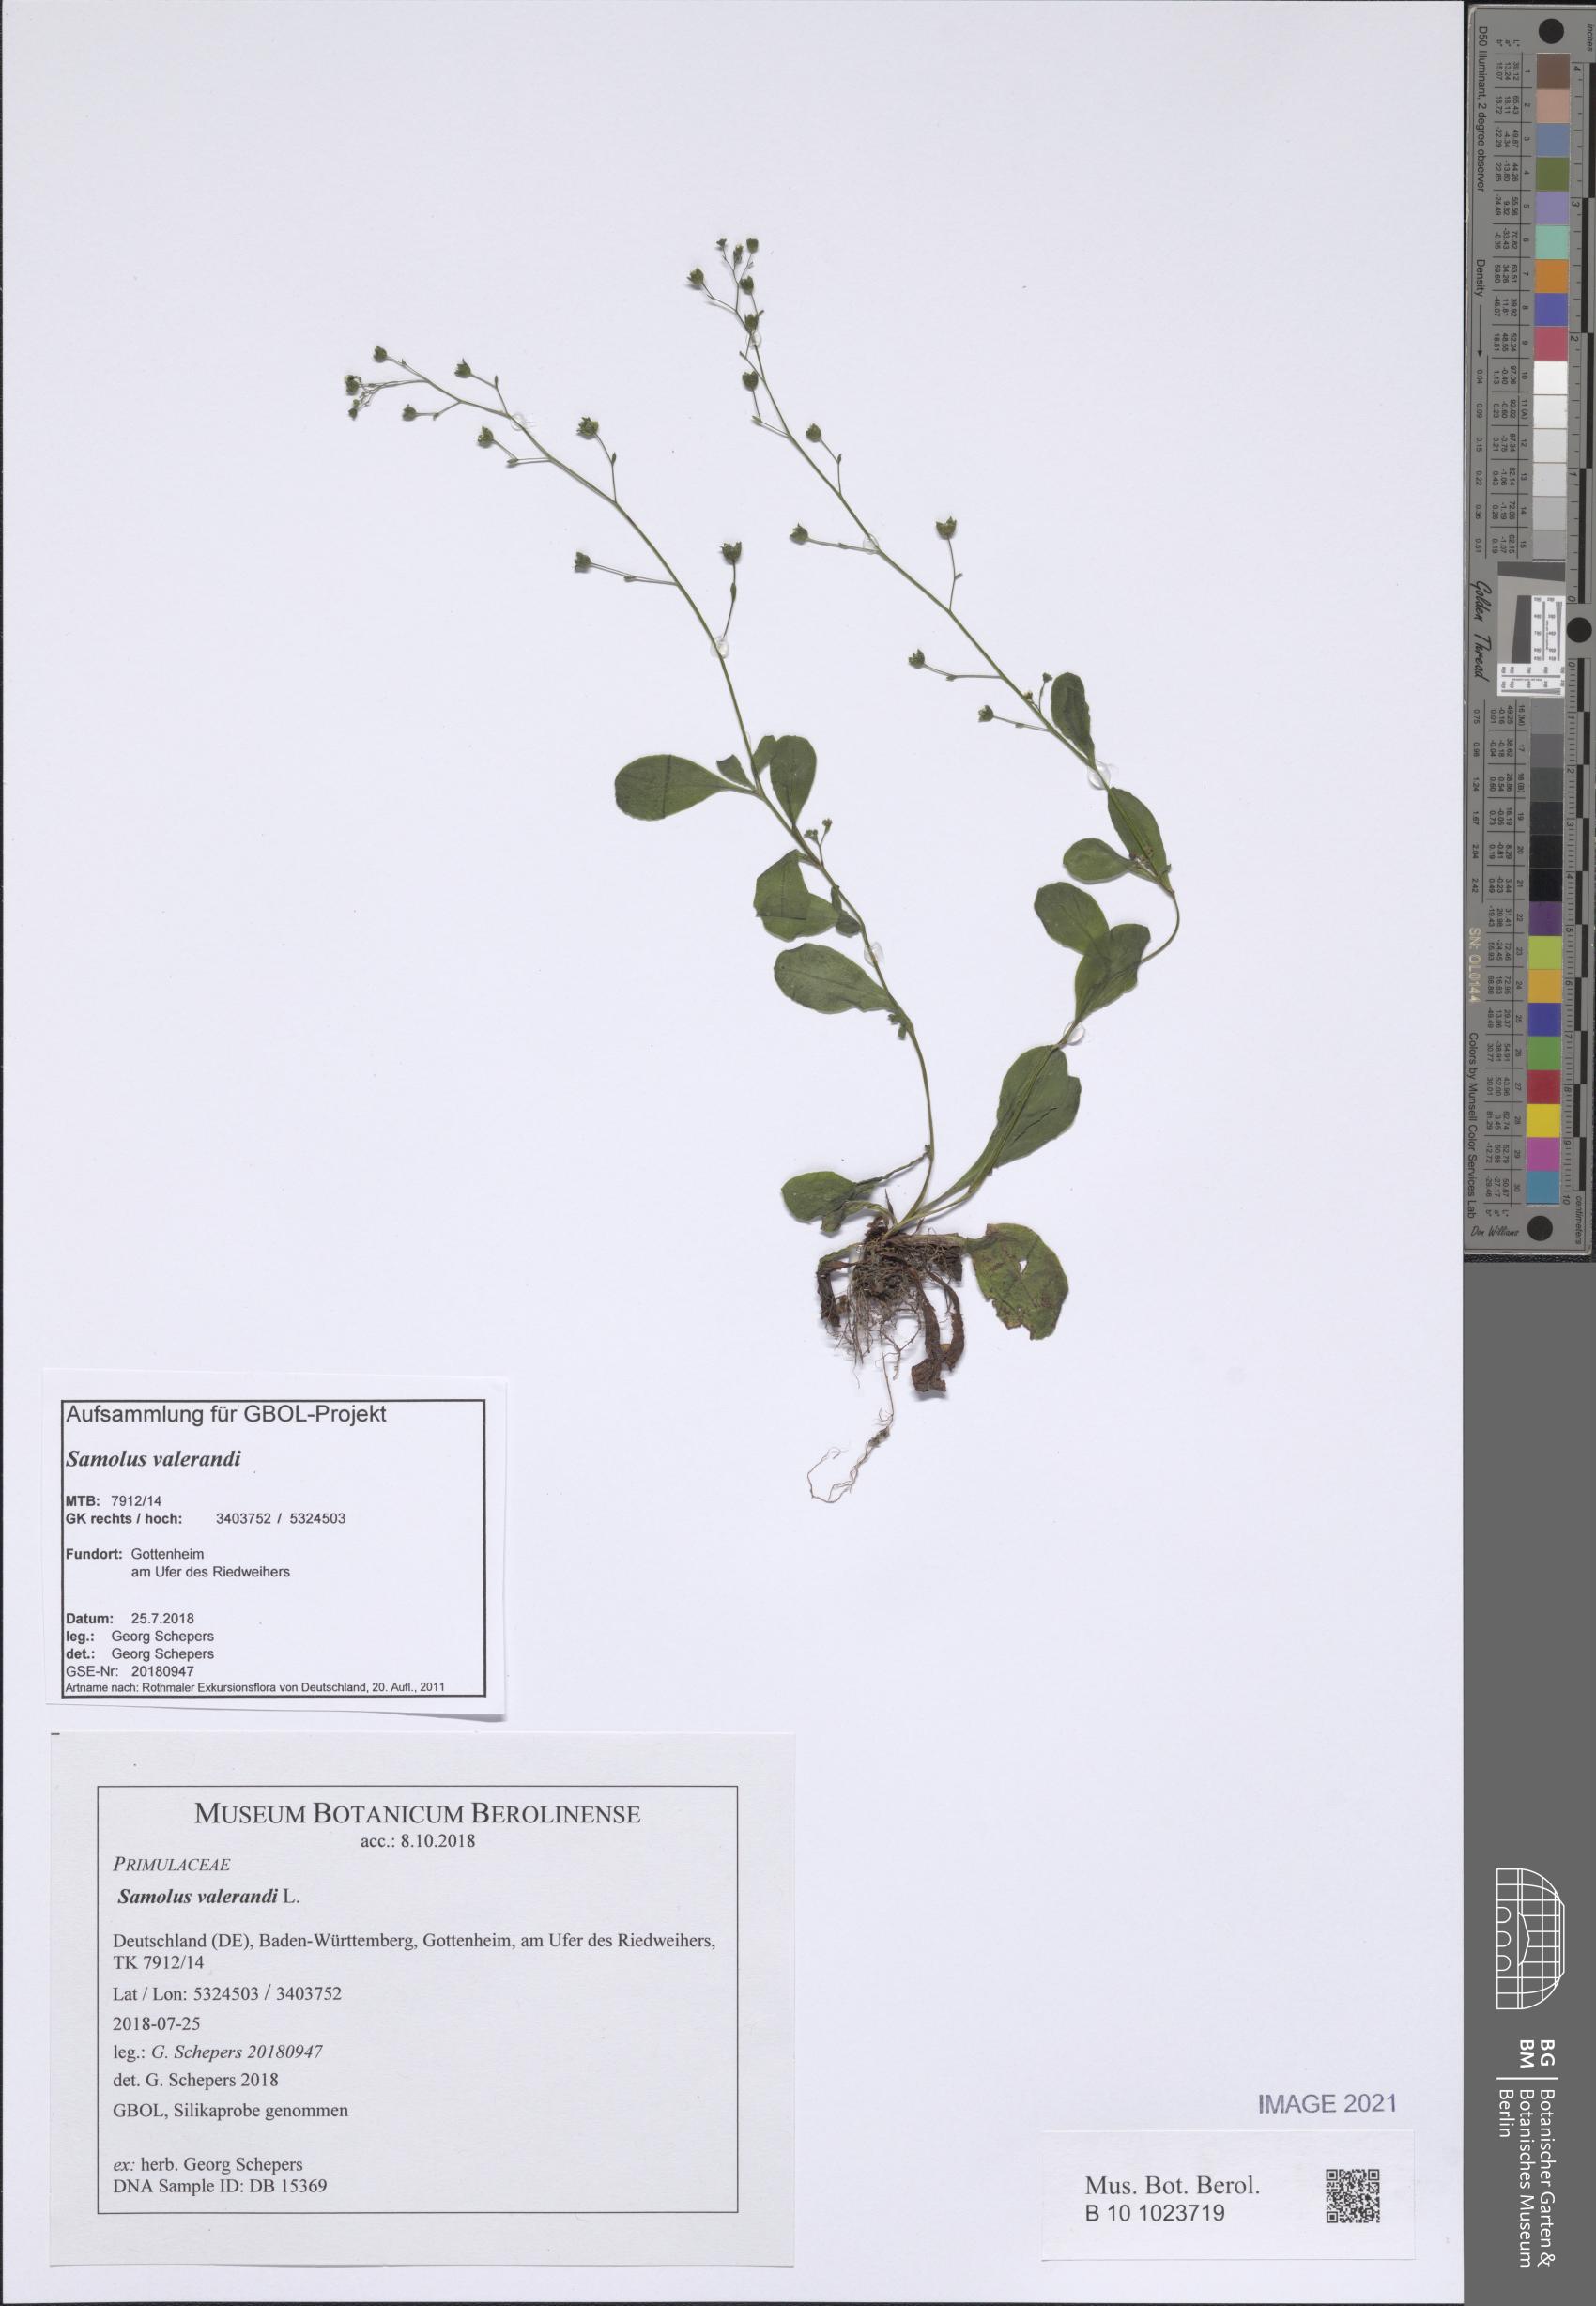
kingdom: Plantae
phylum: Tracheophyta
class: Magnoliopsida
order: Ericales
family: Primulaceae
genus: Samolus
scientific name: Samolus valerandi
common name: Brookweed
